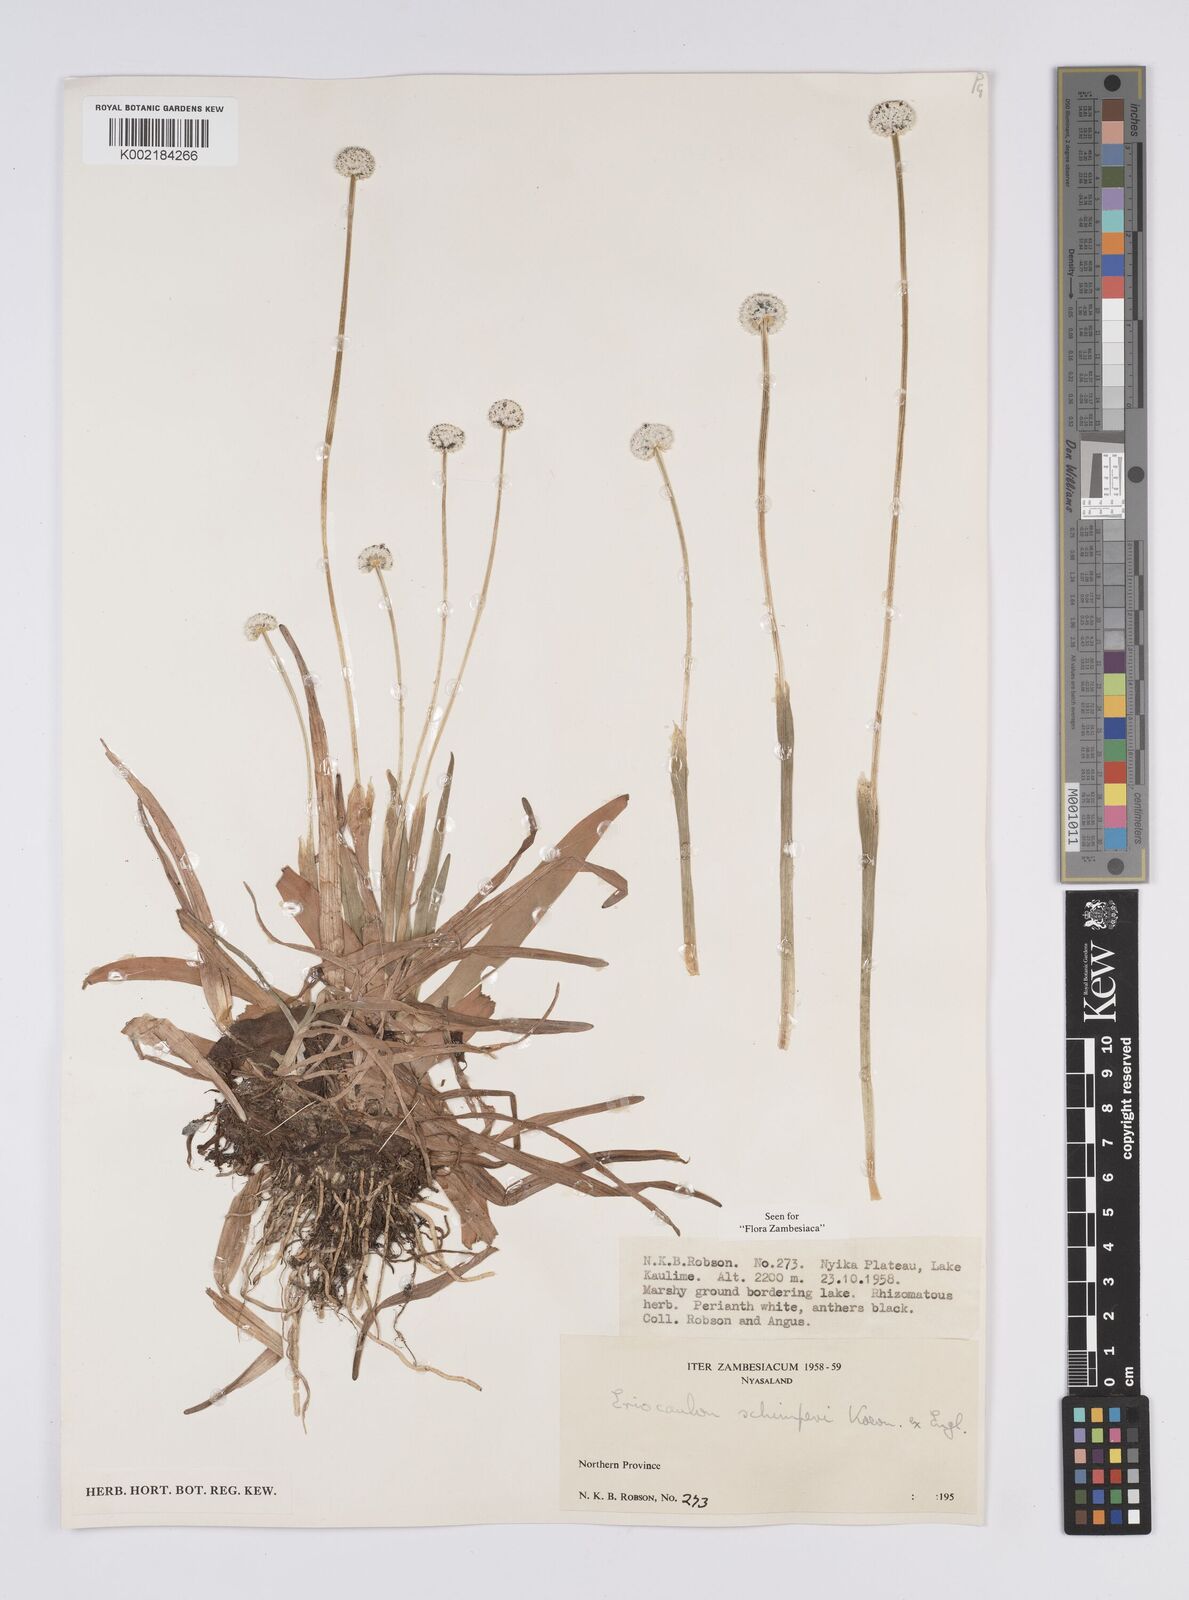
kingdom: Plantae
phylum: Tracheophyta
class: Liliopsida
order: Poales
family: Eriocaulaceae
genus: Eriocaulon
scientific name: Eriocaulon schimperi
